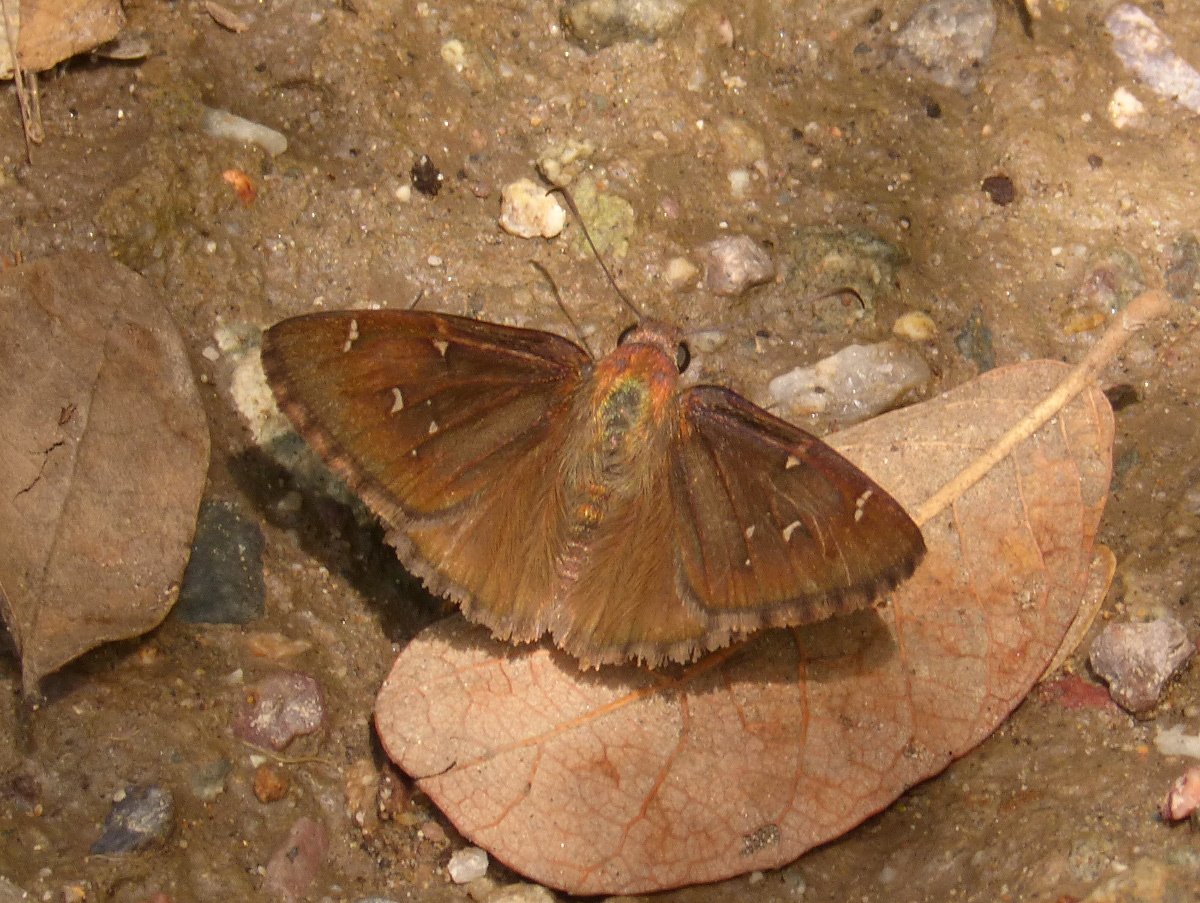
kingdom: Animalia
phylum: Arthropoda
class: Insecta
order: Lepidoptera
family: Hesperiidae
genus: Autochton
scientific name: Autochton
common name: Northern Cloudywing
